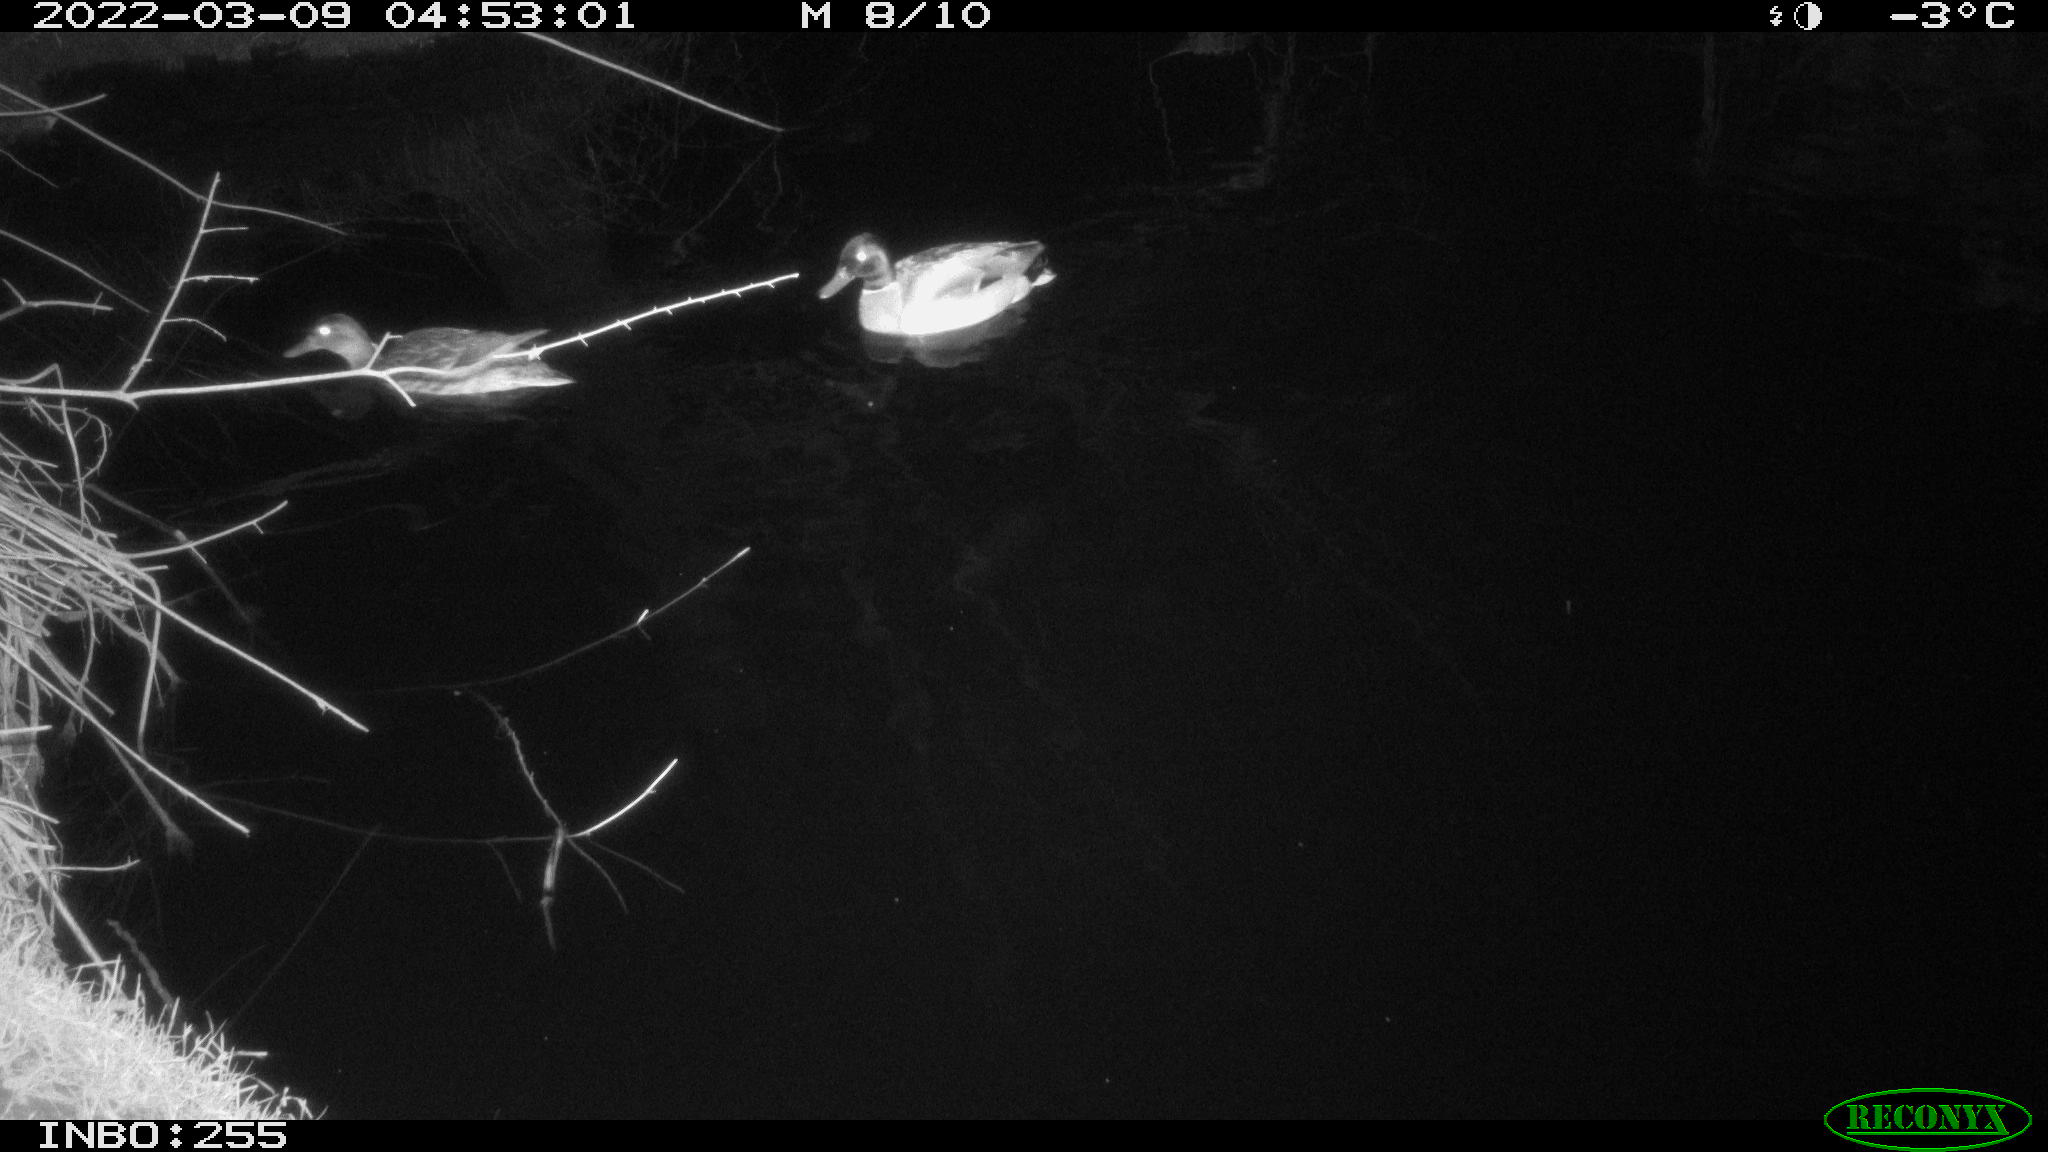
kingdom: Animalia
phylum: Chordata
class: Aves
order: Anseriformes
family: Anatidae
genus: Anas
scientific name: Anas platyrhynchos
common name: Mallard
